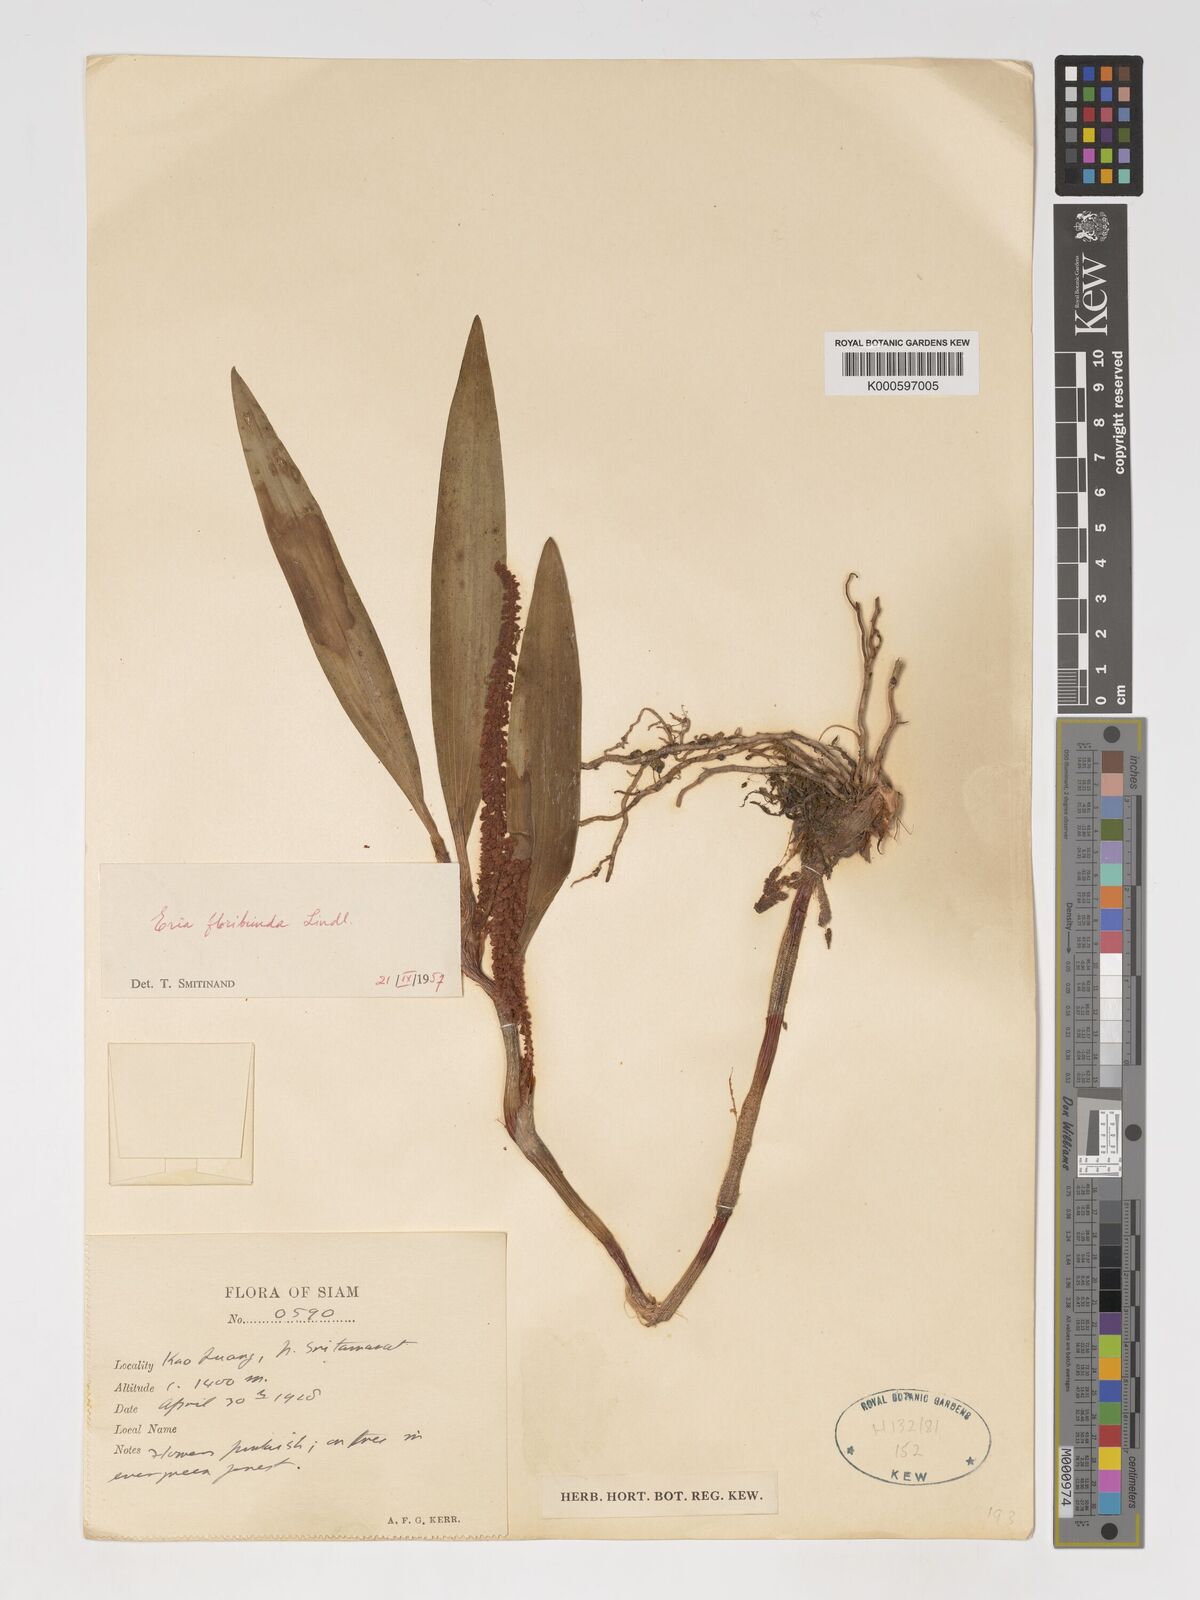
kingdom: Plantae
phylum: Tracheophyta
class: Liliopsida
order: Asparagales
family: Orchidaceae
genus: Pinalia
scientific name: Pinalia floribunda
